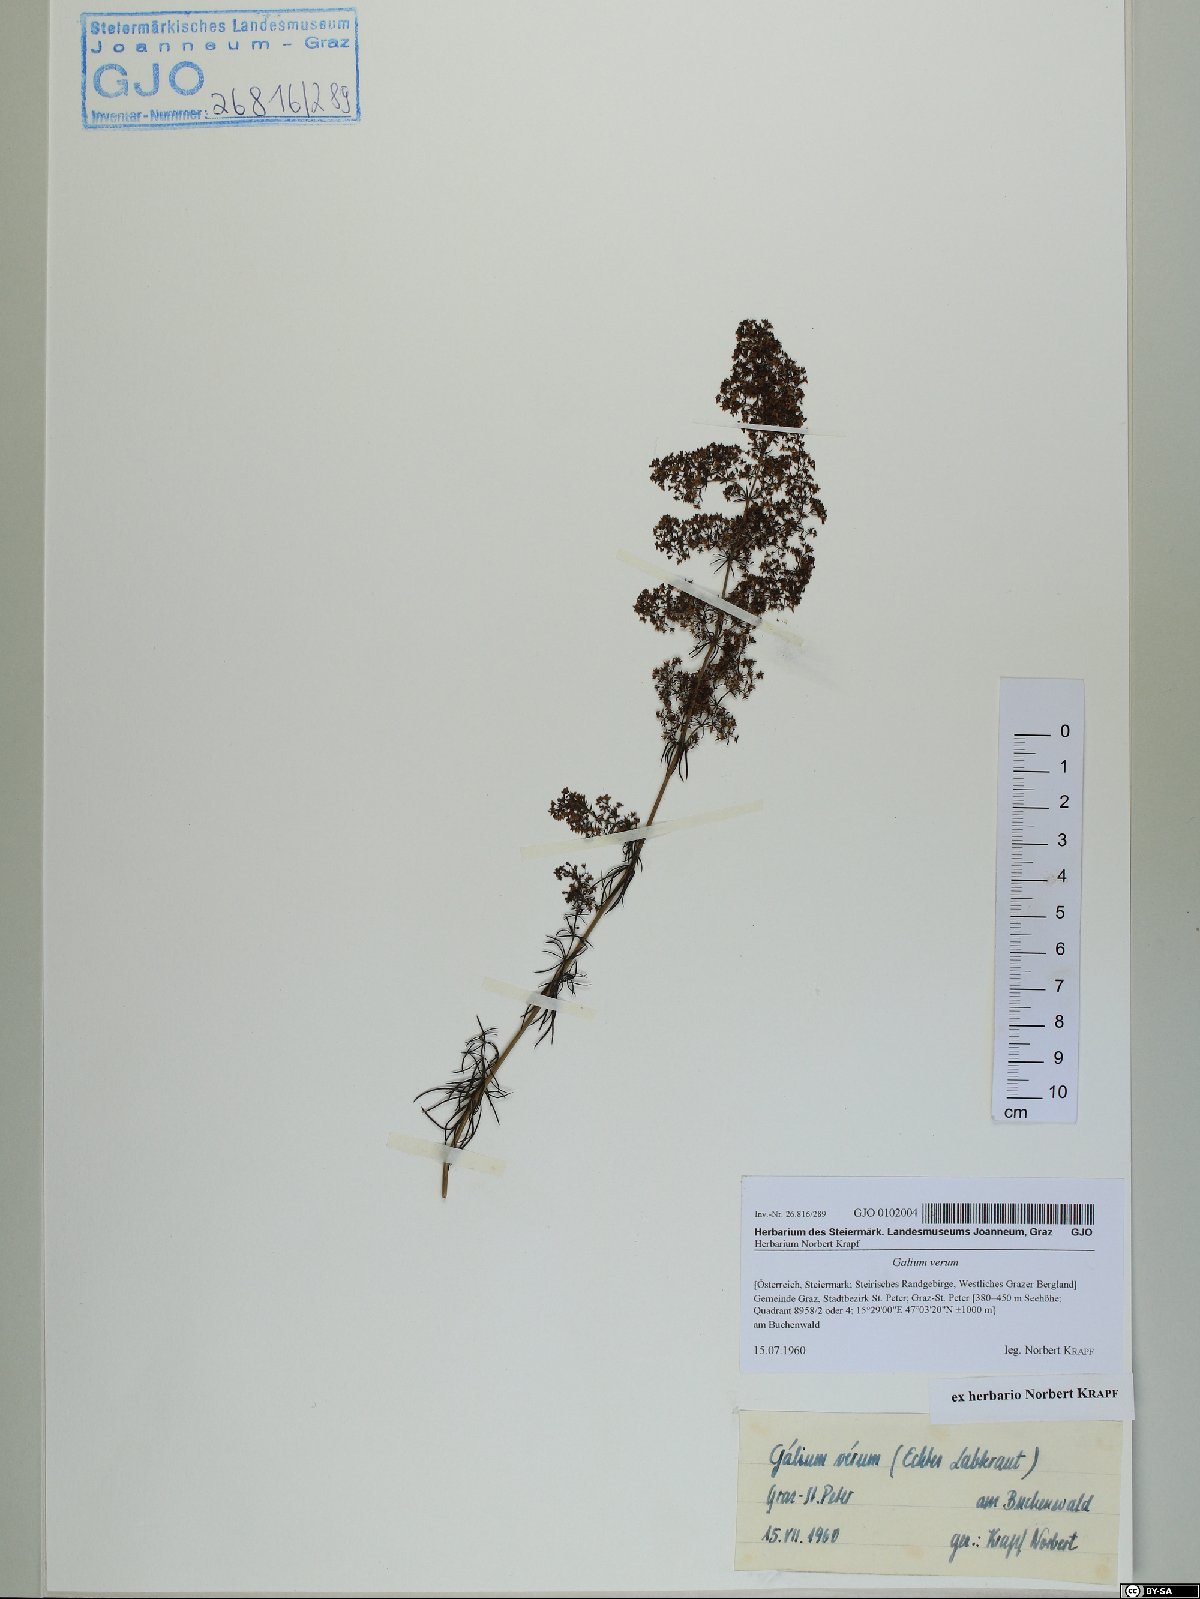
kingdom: Plantae
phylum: Tracheophyta
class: Magnoliopsida
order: Gentianales
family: Rubiaceae
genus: Galium
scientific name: Galium verum
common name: Lady's bedstraw
